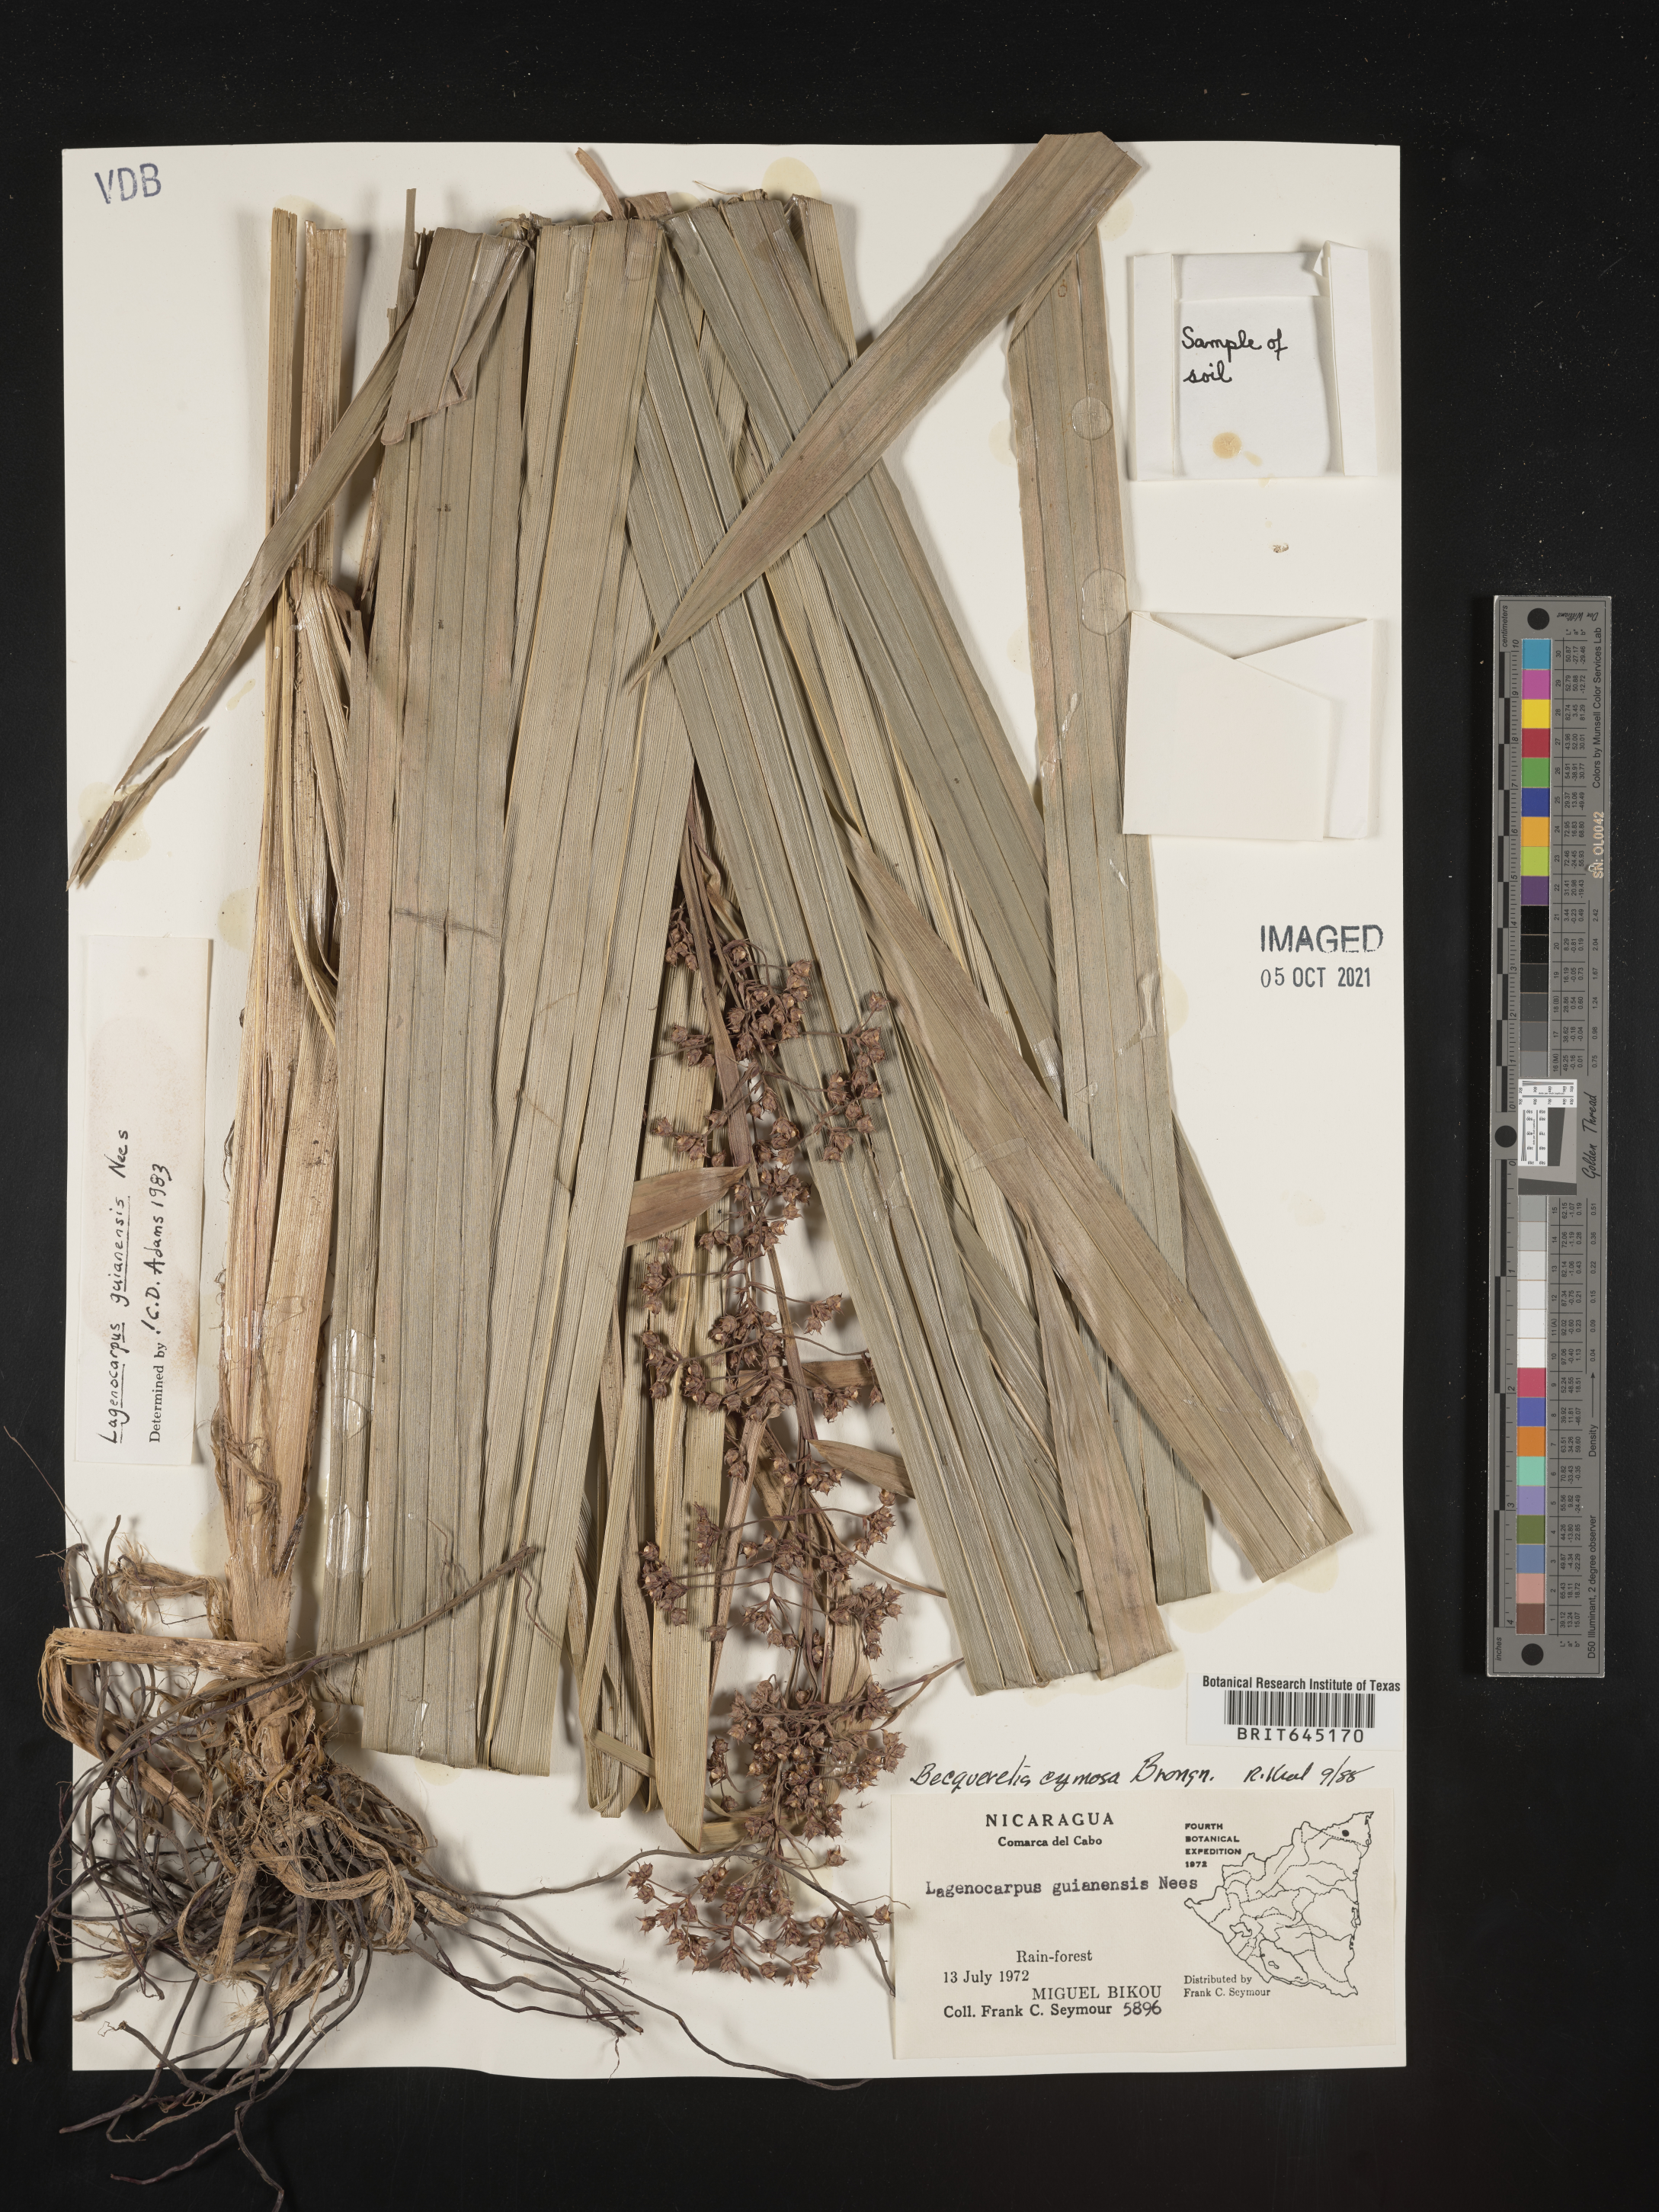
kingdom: Plantae
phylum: Tracheophyta
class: Liliopsida
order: Poales
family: Cyperaceae
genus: Becquerelia
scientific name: Becquerelia merkeliana
